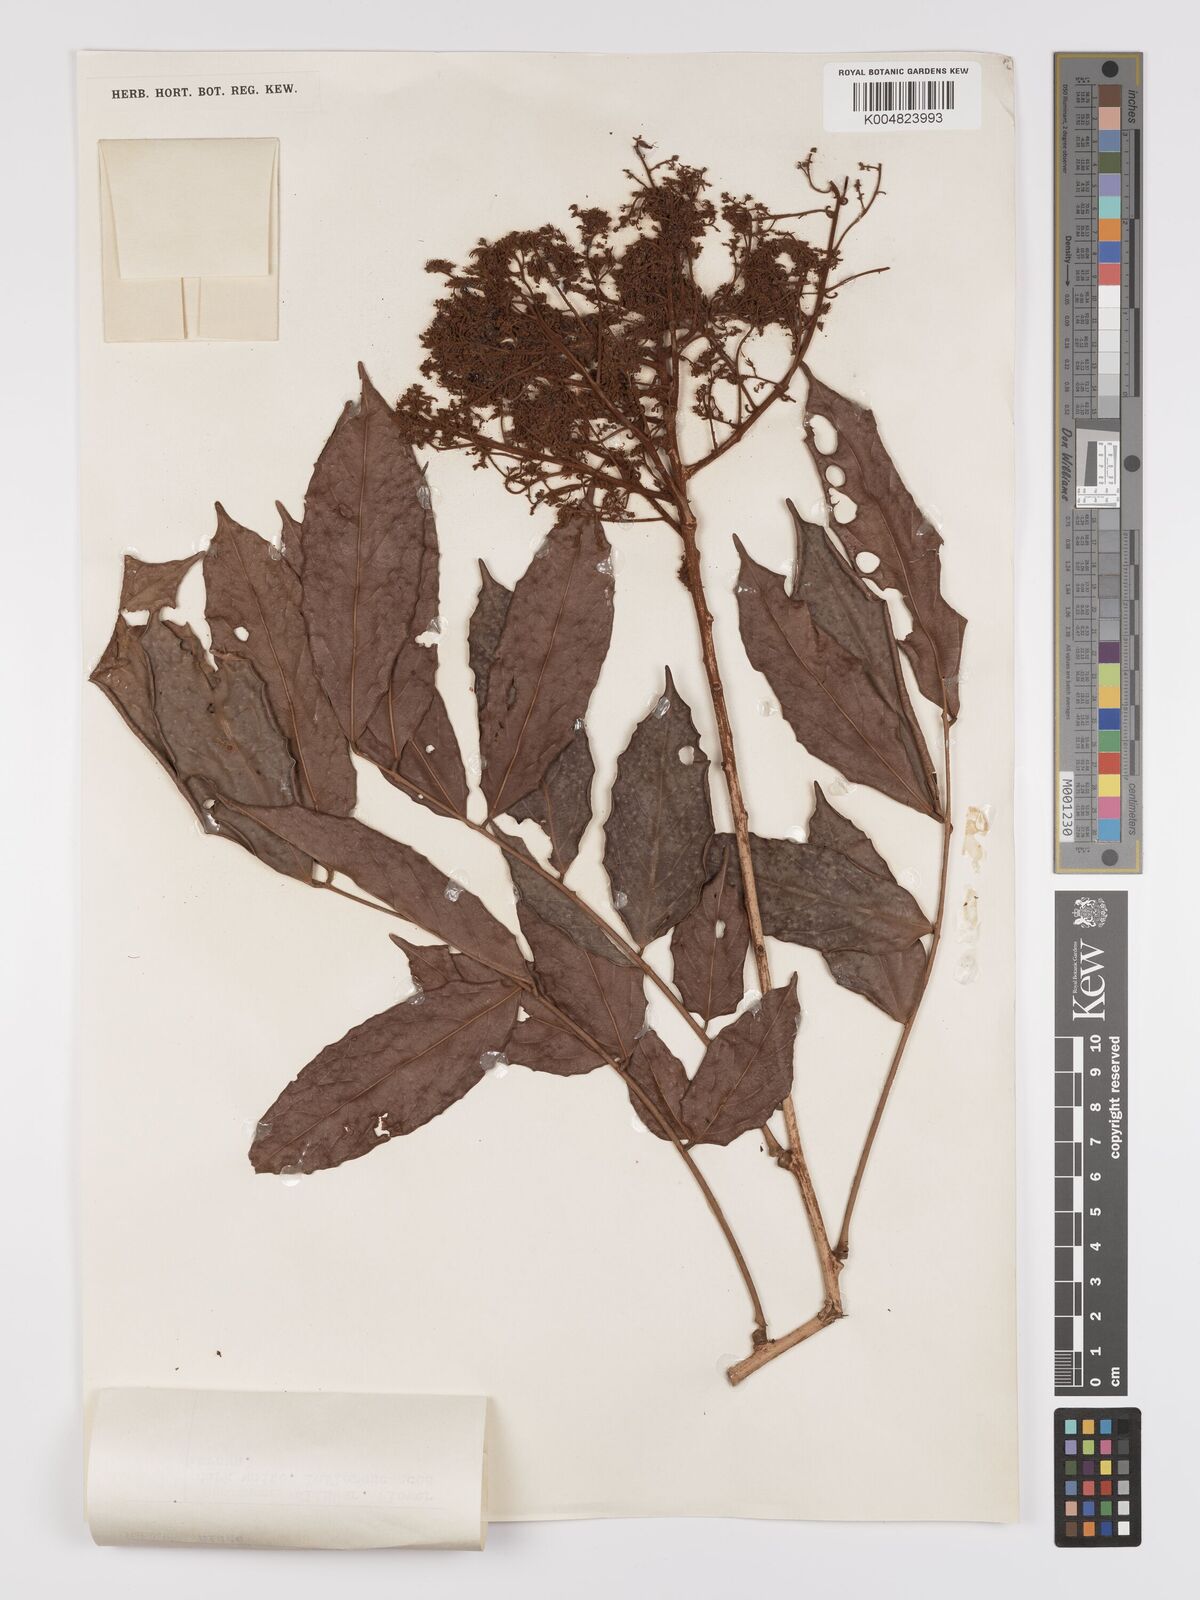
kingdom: Plantae
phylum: Tracheophyta
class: Magnoliopsida
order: Oxalidales
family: Connaraceae
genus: Connarus
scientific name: Connarus odoratus
